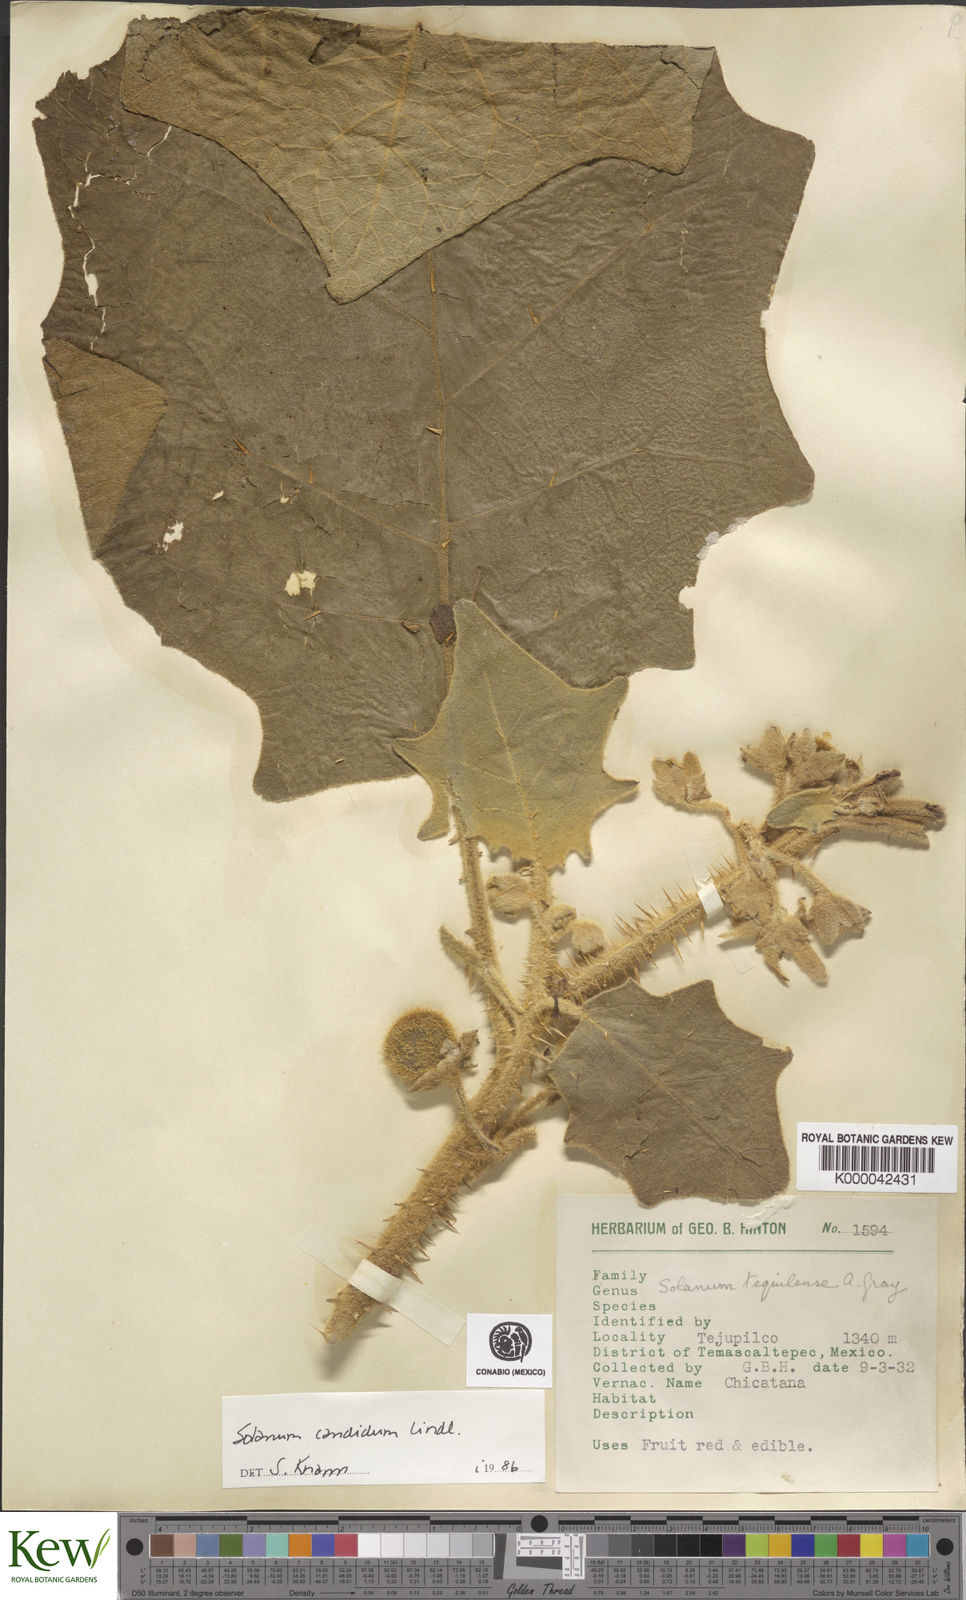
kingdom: Plantae
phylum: Tracheophyta
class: Magnoliopsida
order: Solanales
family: Solanaceae
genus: Solanum
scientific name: Solanum candidum
